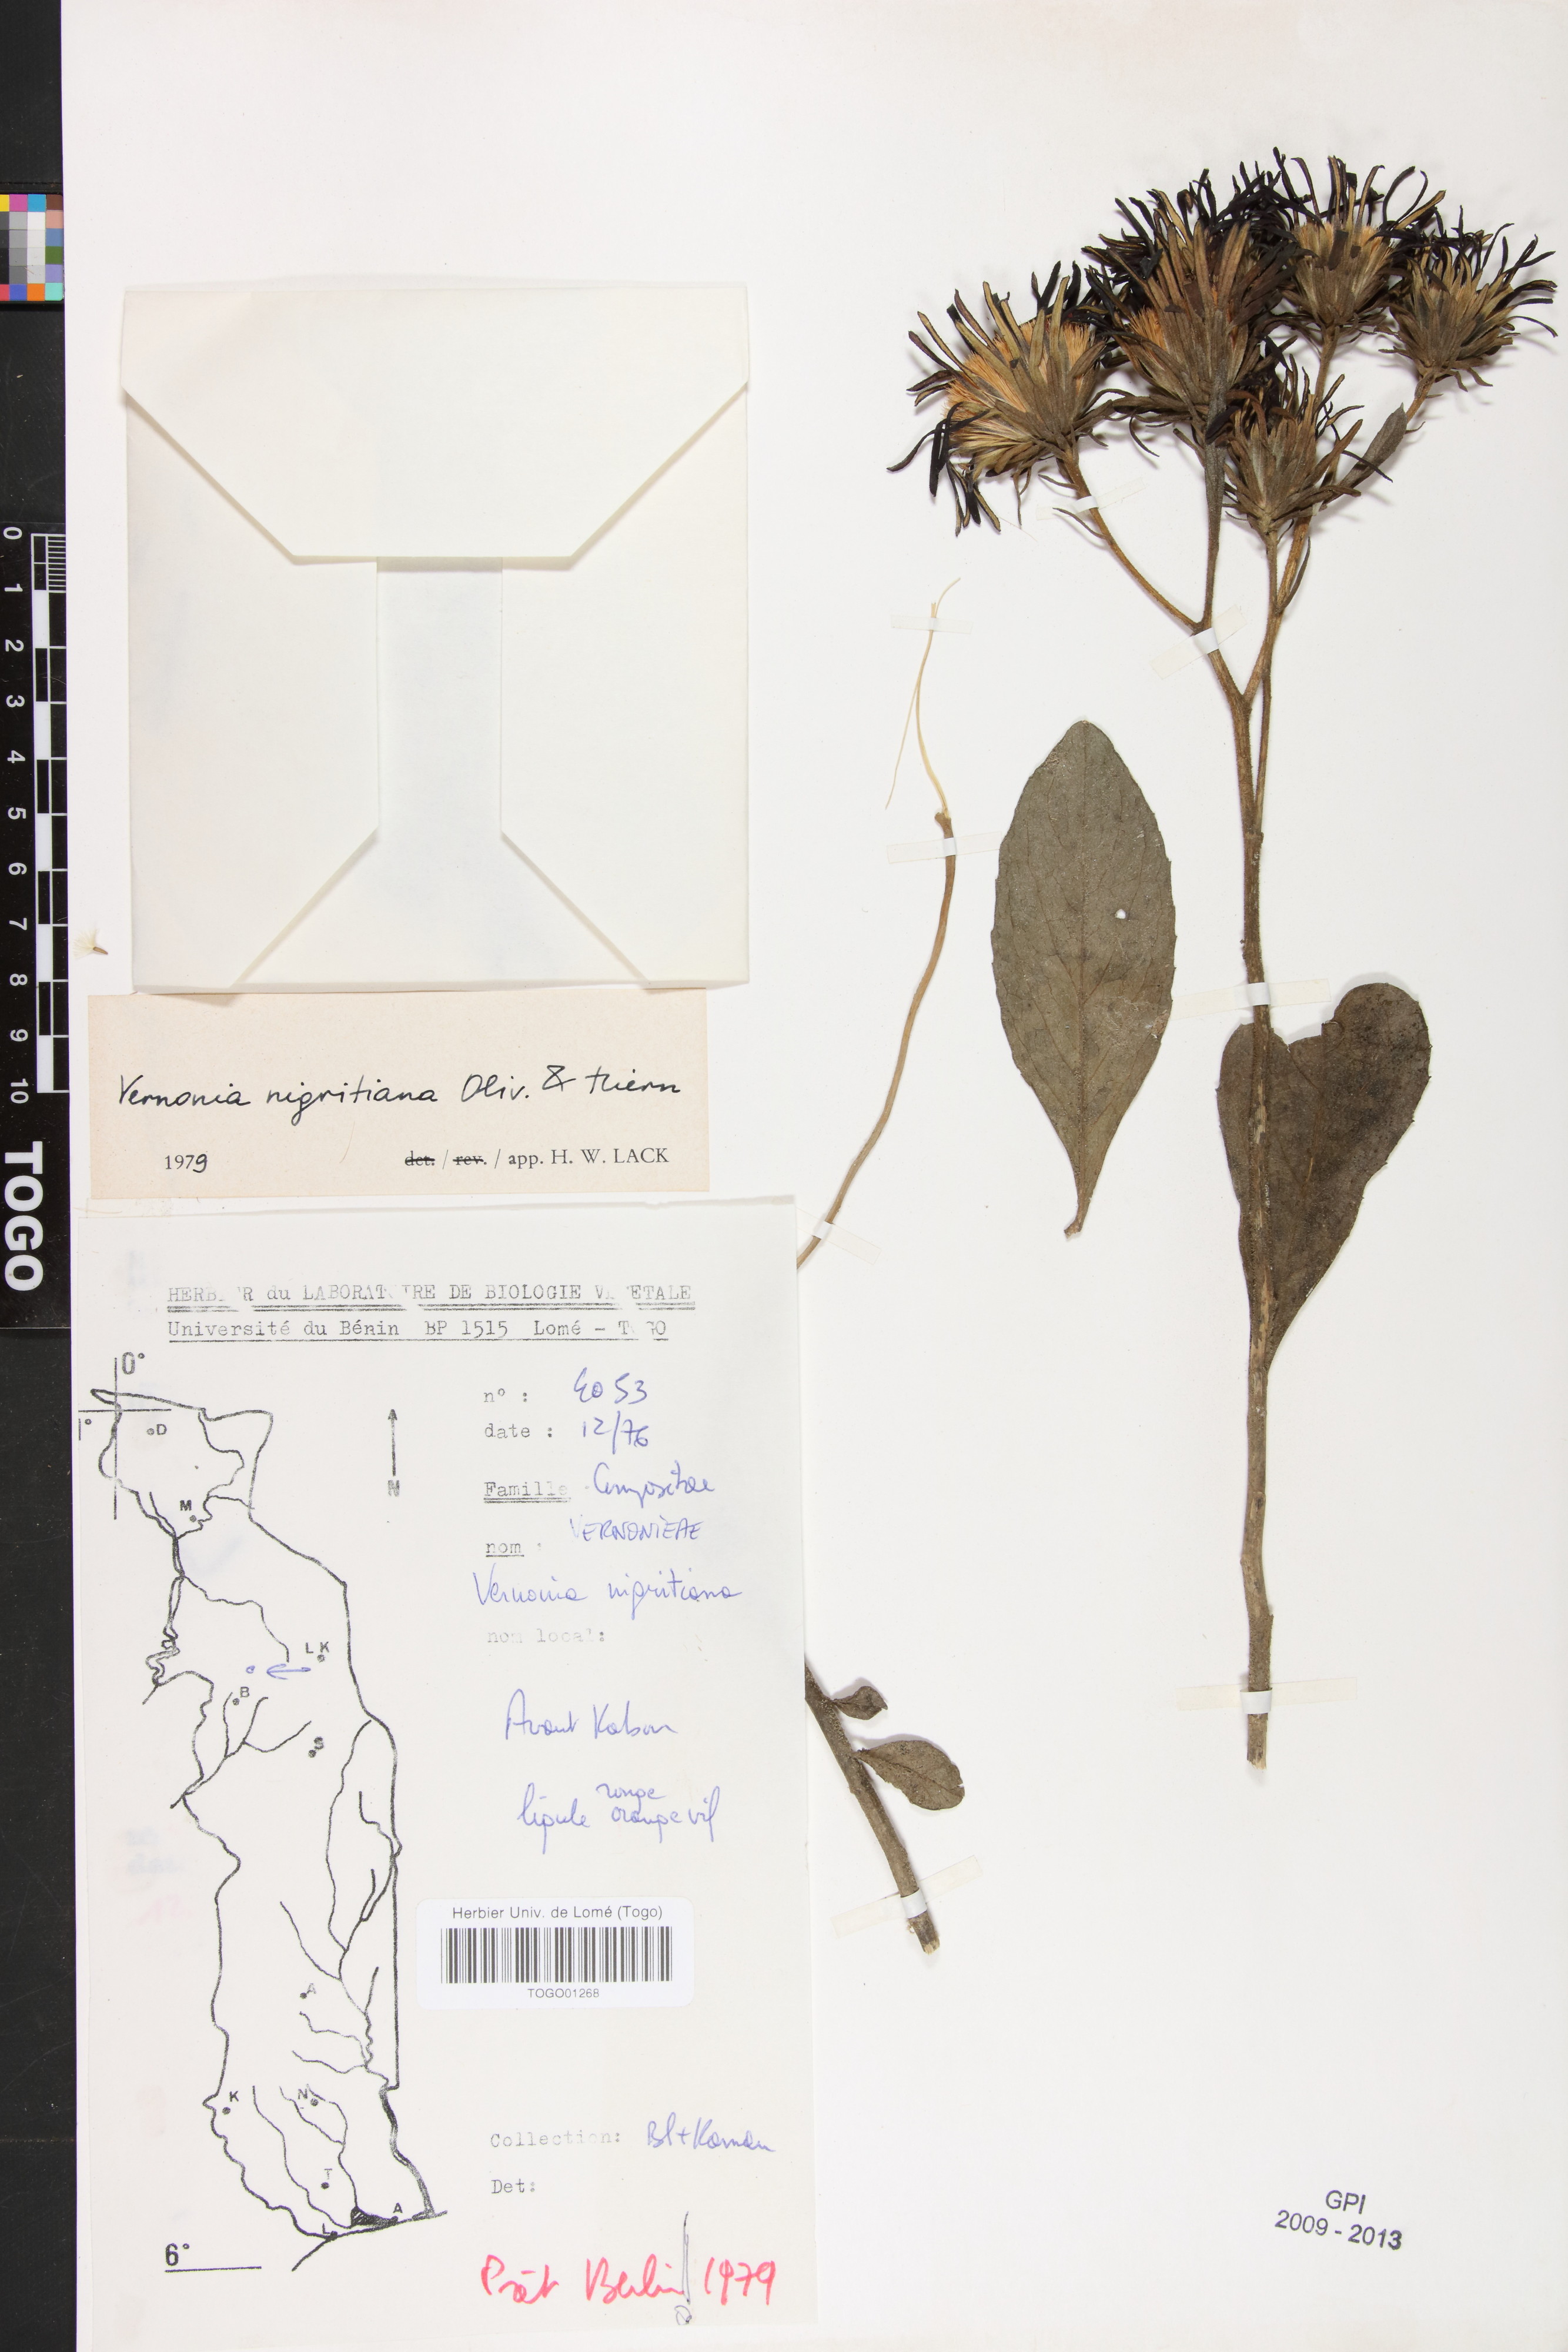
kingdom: Plantae
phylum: Tracheophyta
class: Magnoliopsida
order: Asterales
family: Asteraceae
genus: Linzia
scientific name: Linzia nigritiana
